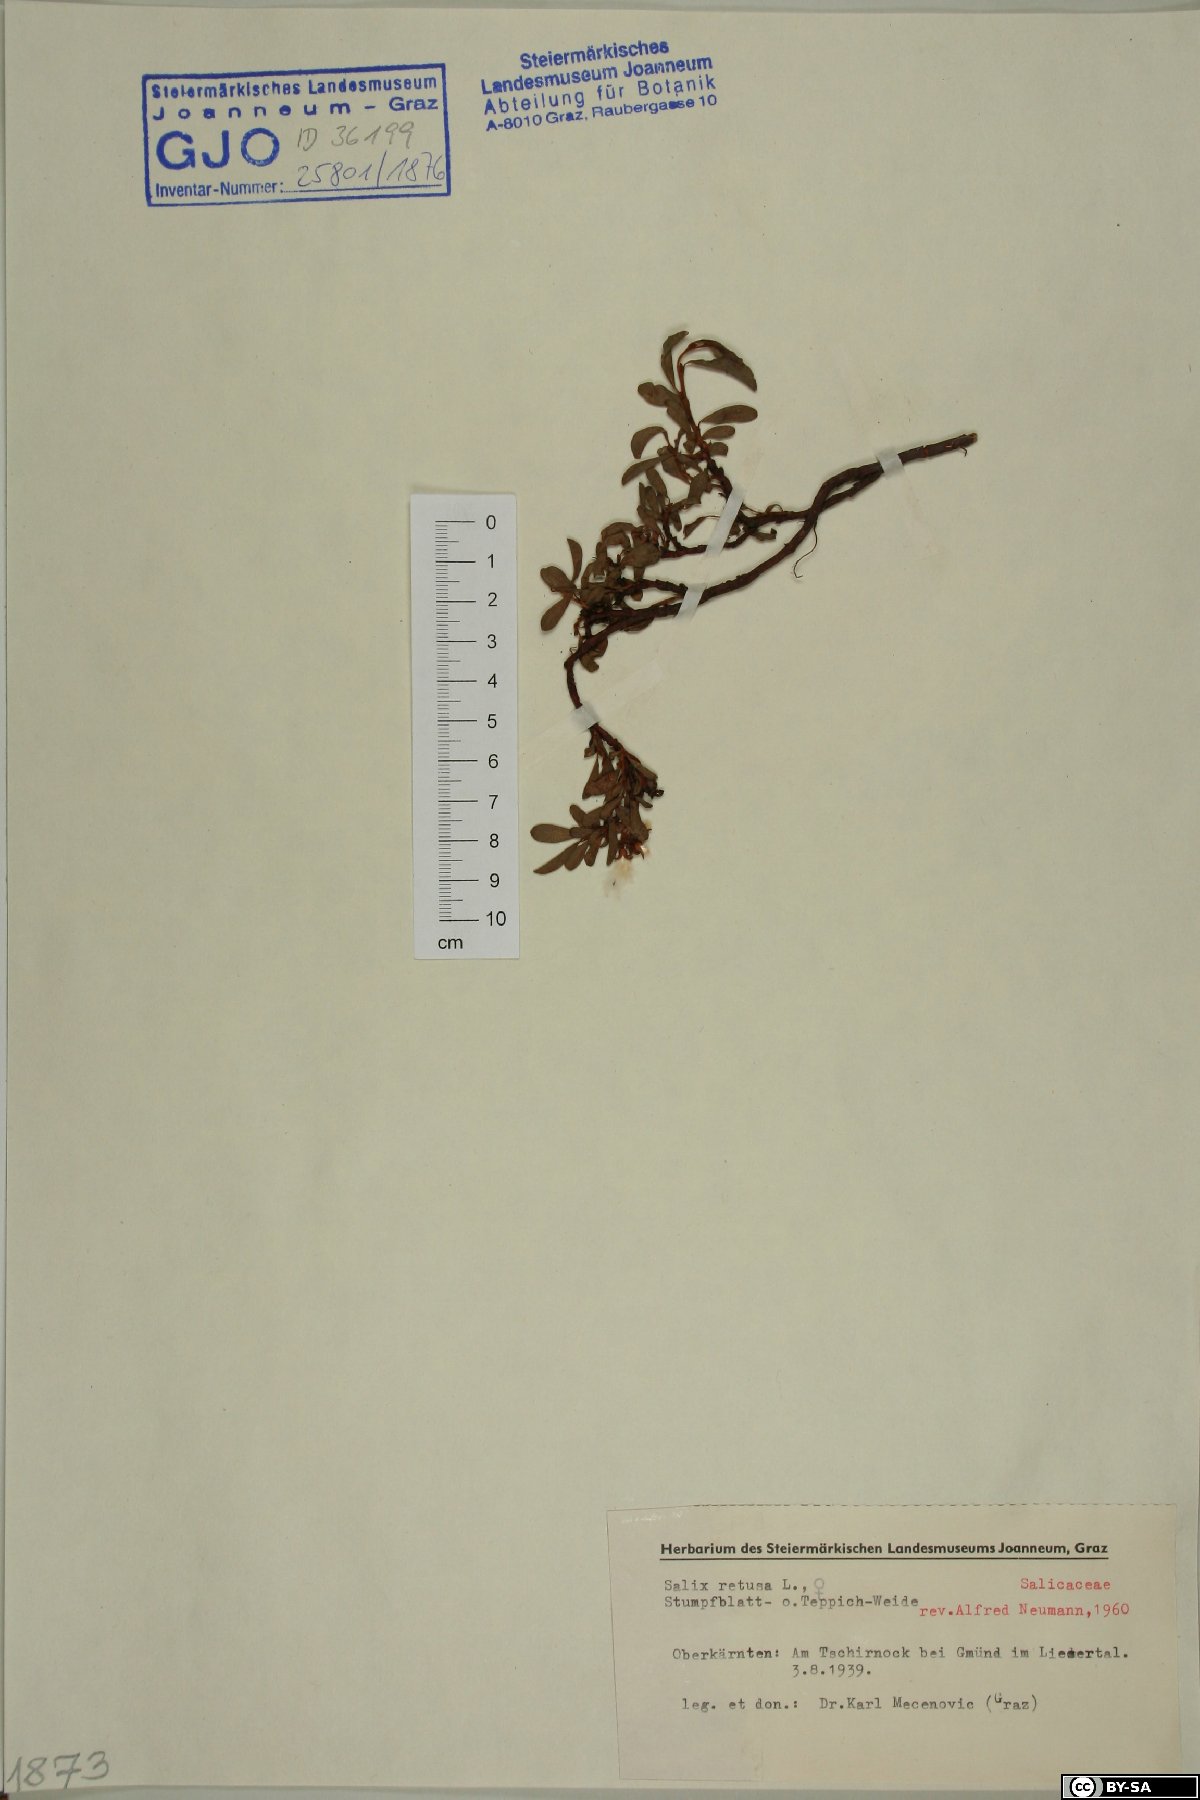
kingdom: Plantae
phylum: Tracheophyta
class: Magnoliopsida
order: Malpighiales
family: Salicaceae
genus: Salix
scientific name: Salix retusa
